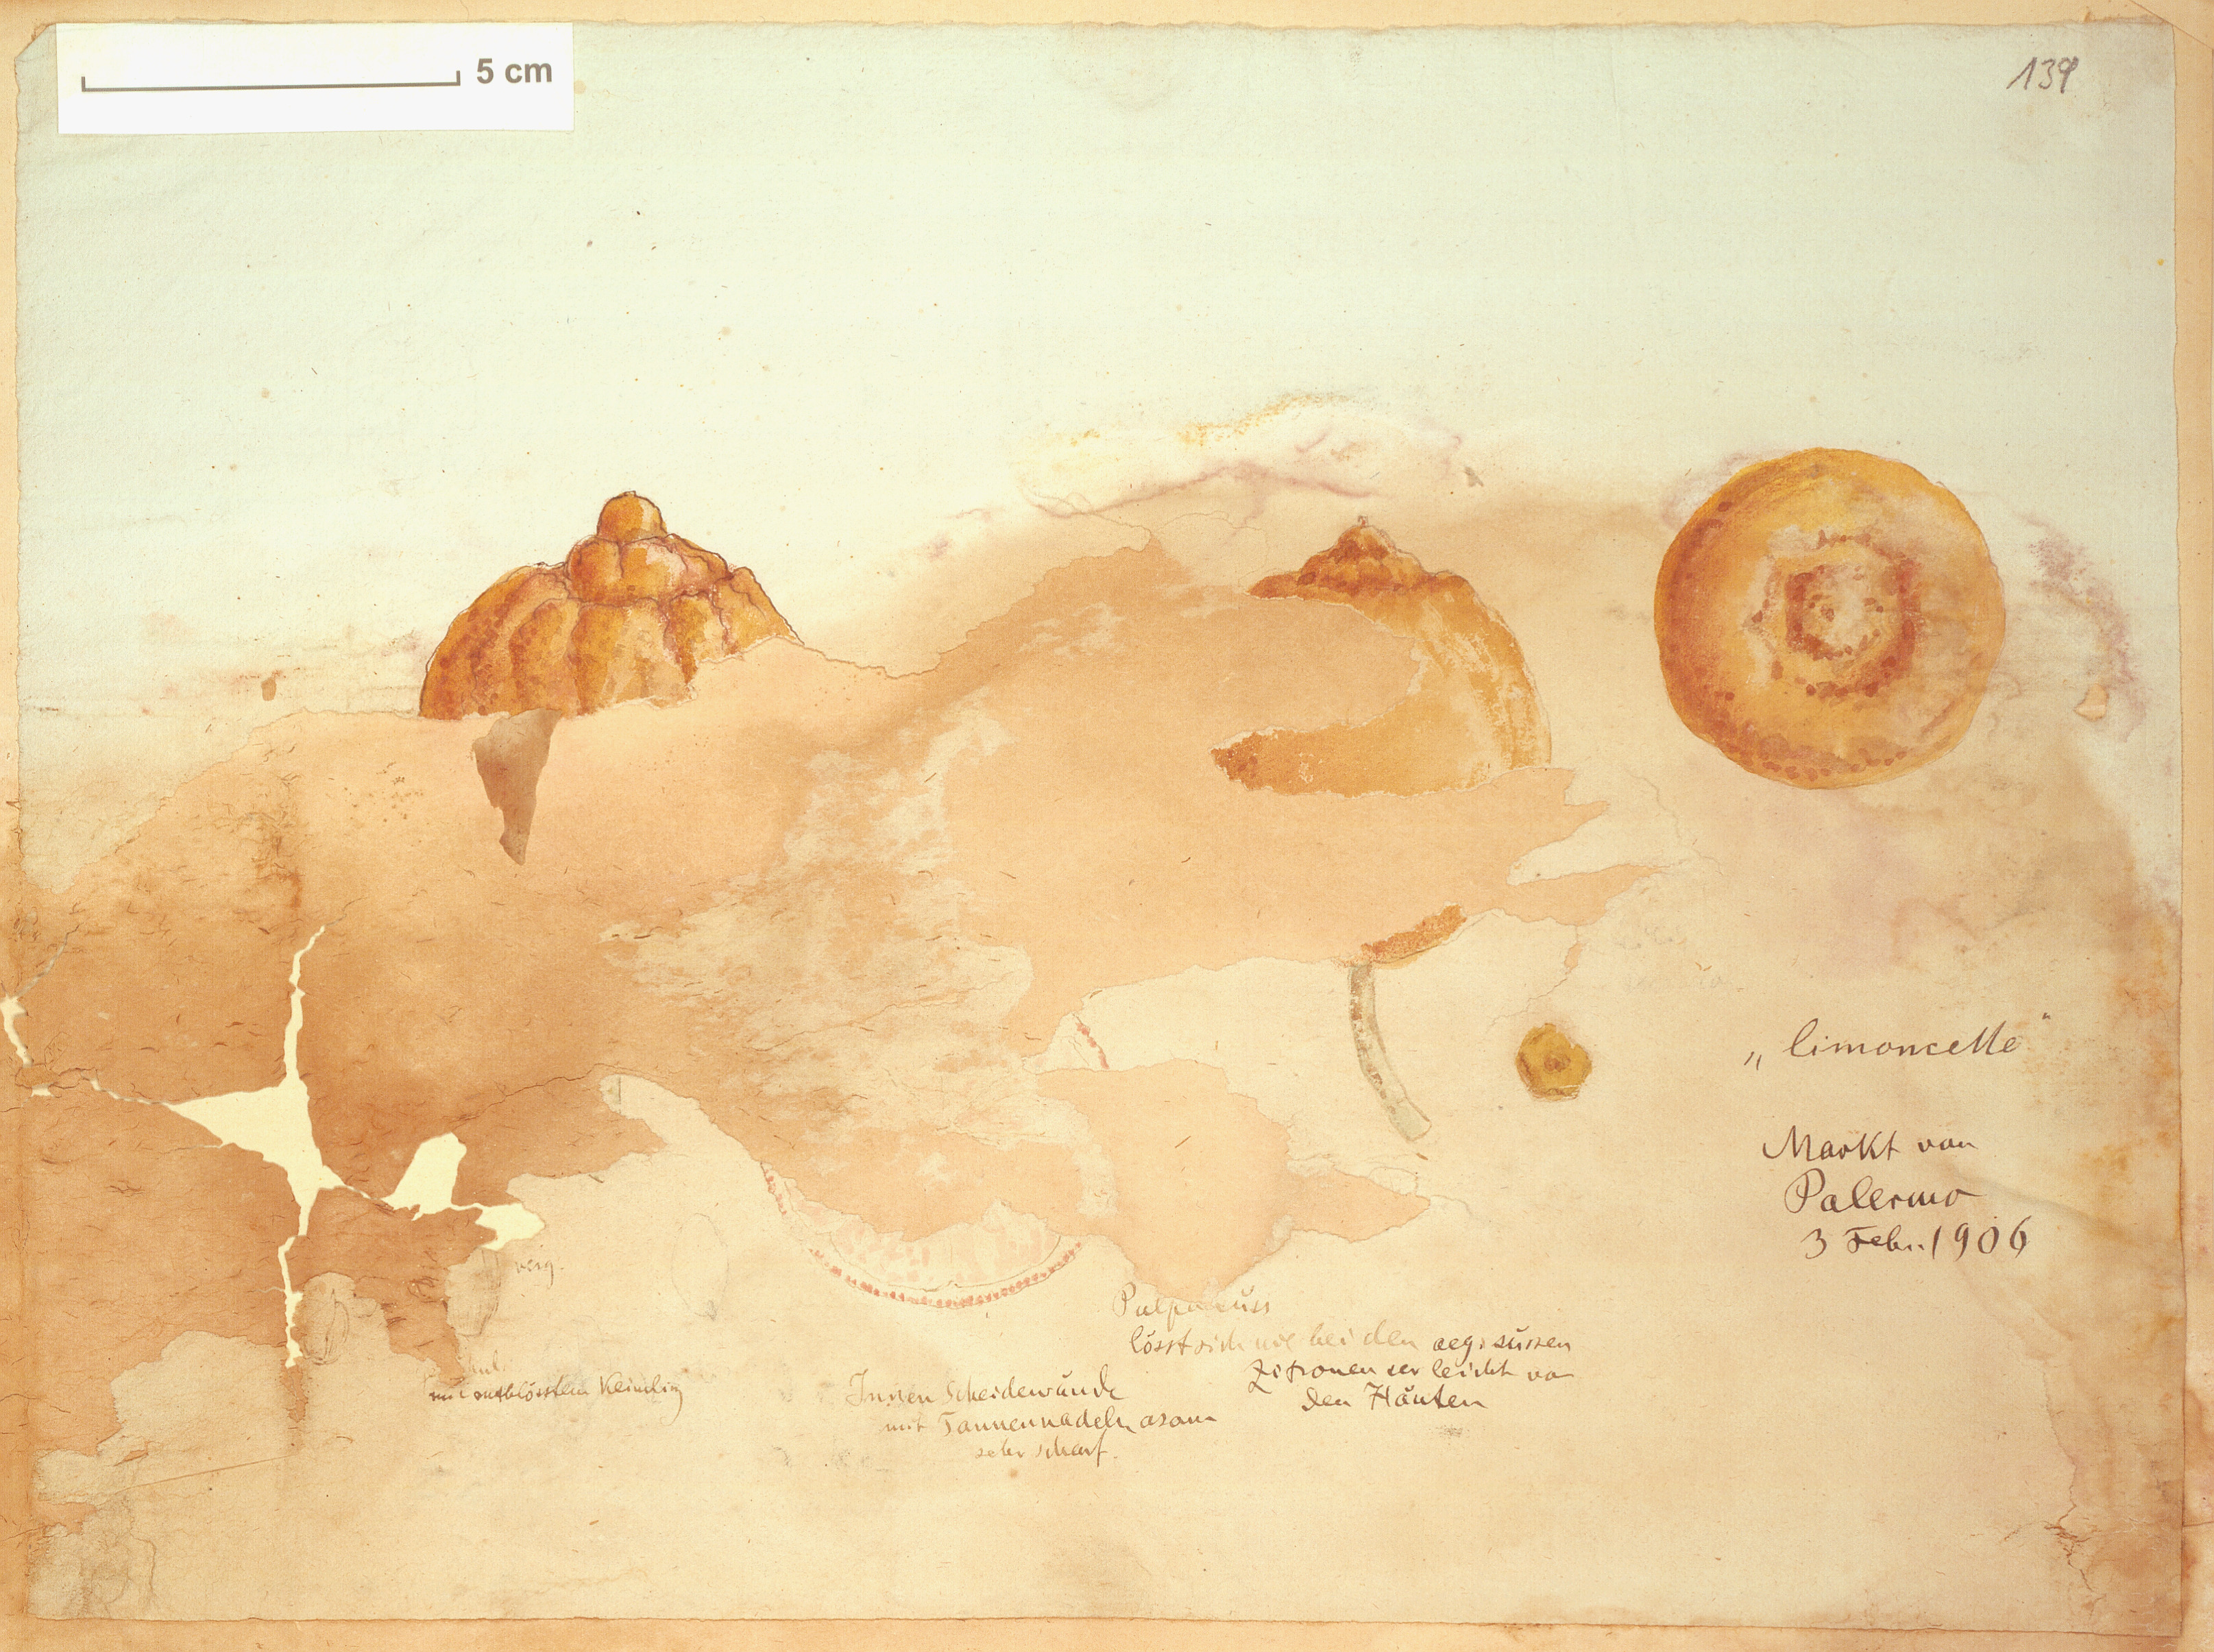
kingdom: Plantae
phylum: Tracheophyta
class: Magnoliopsida
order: Sapindales
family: Rutaceae
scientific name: Rutaceae
